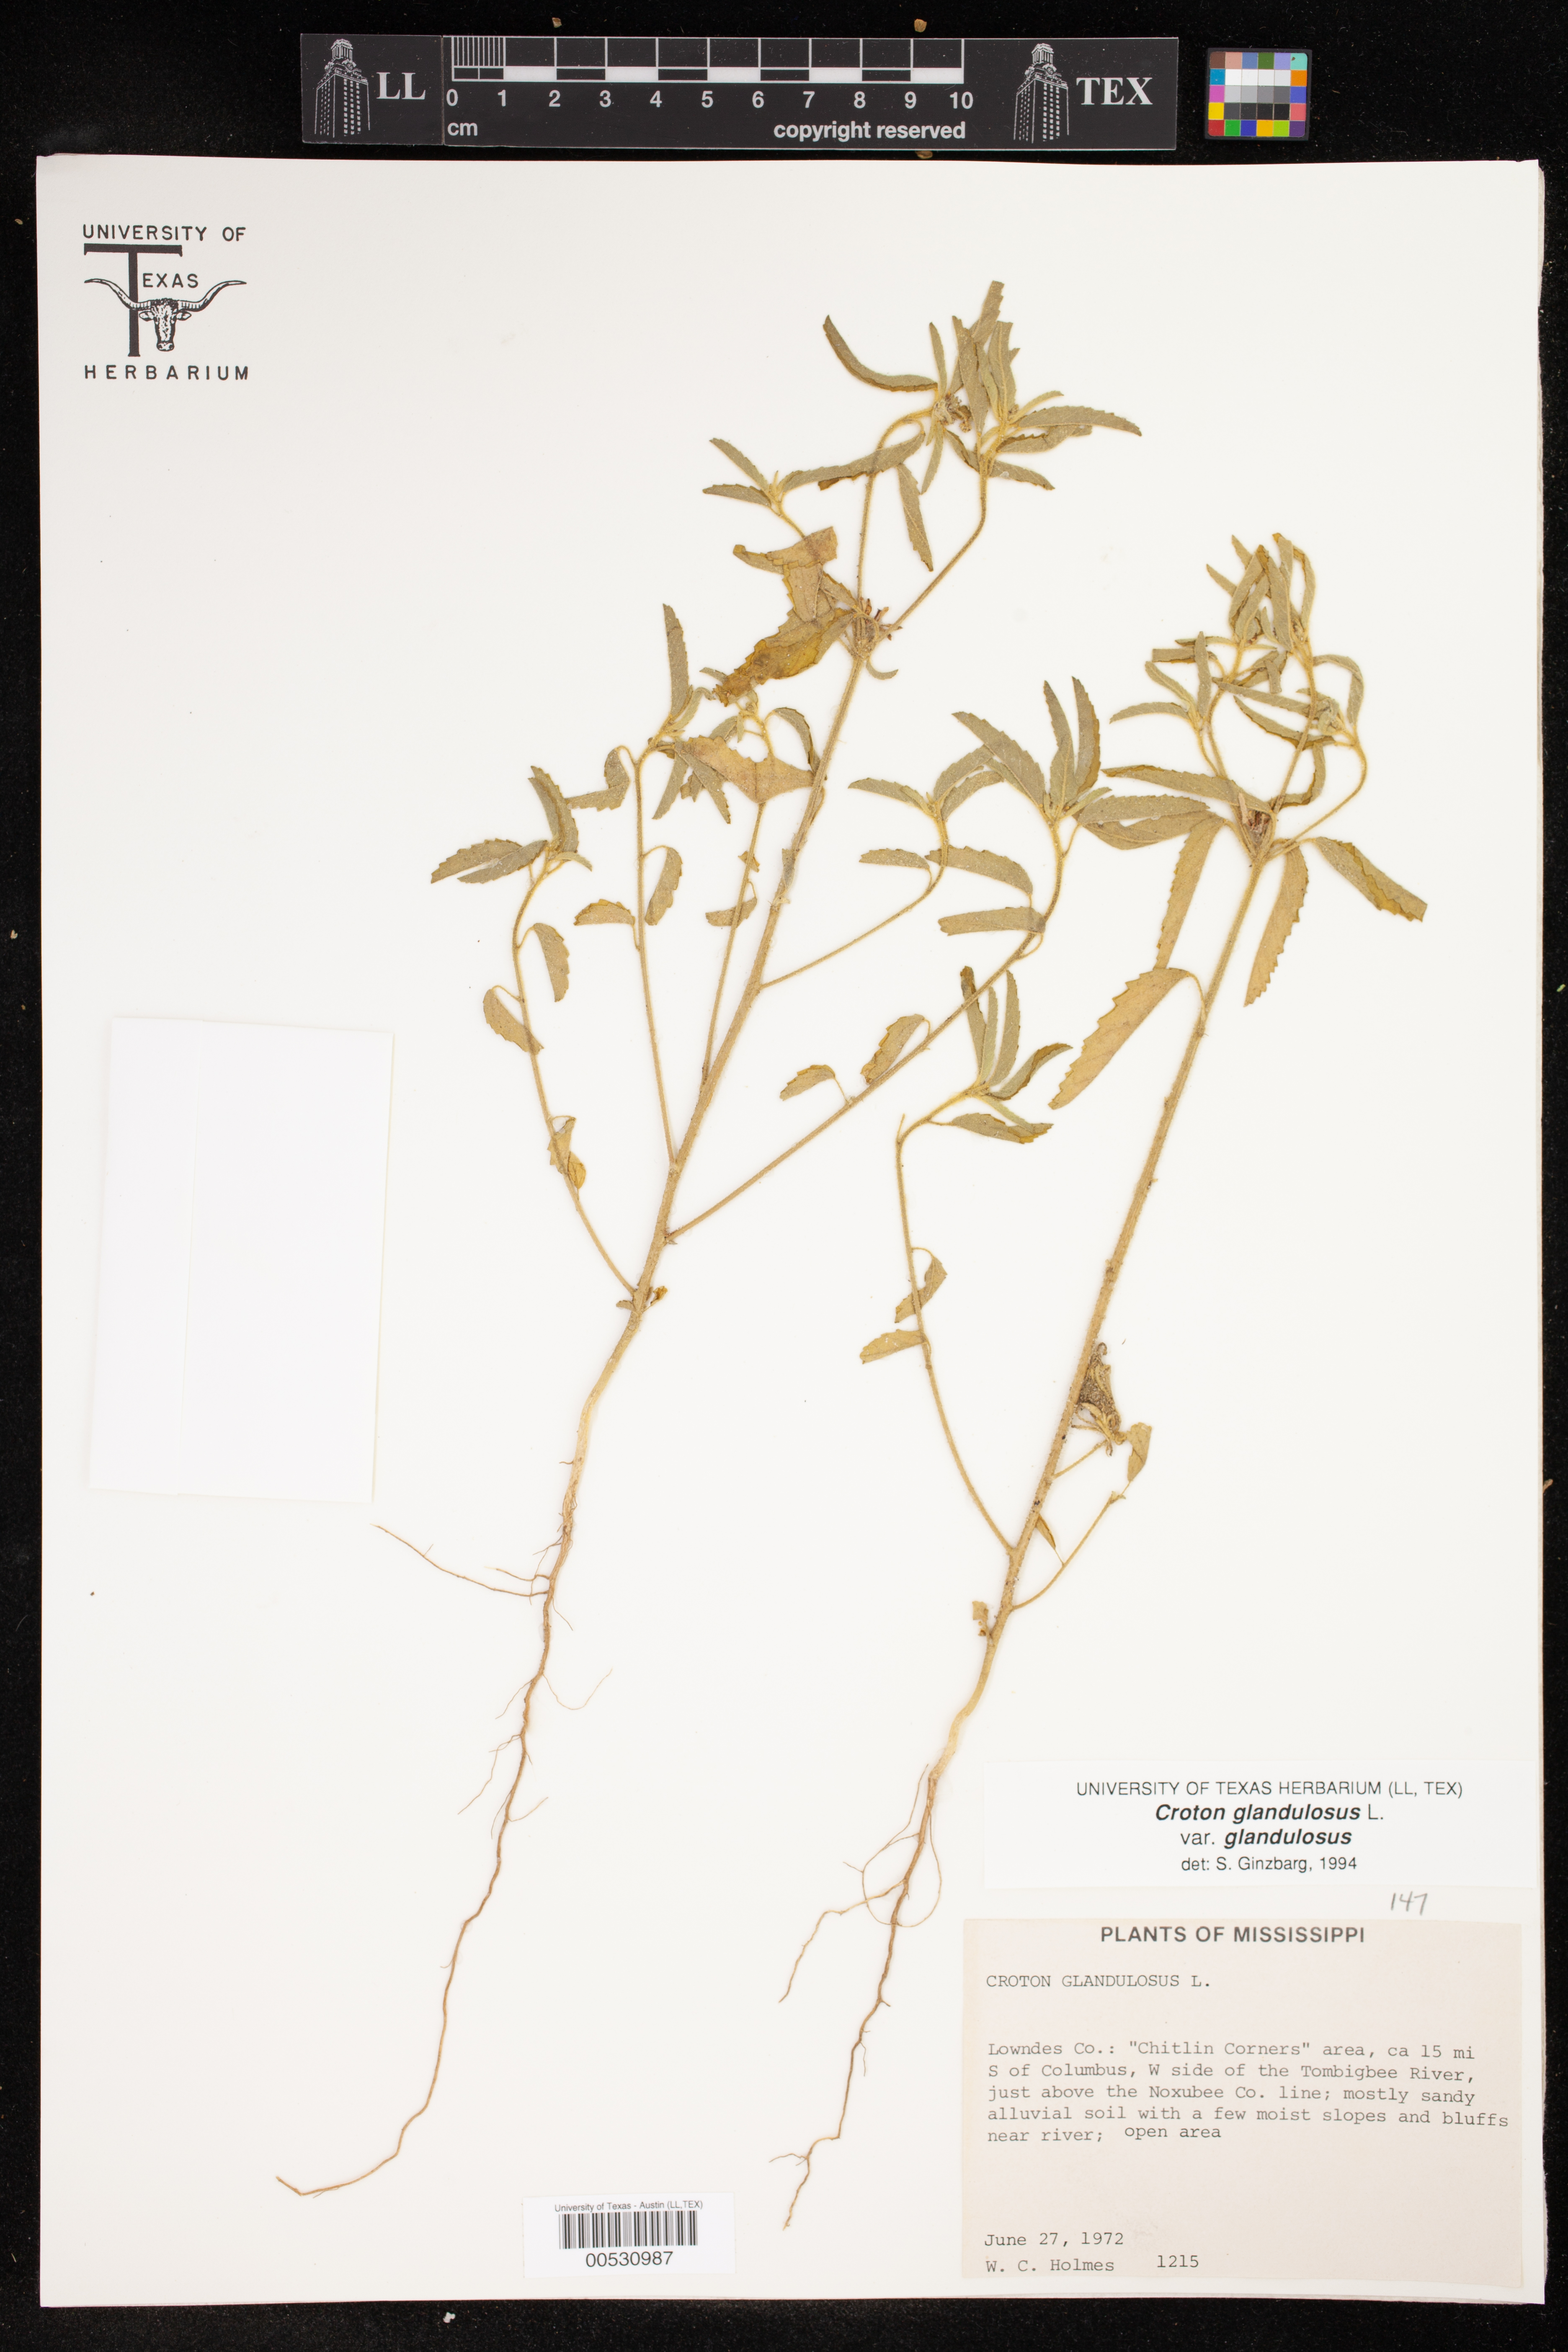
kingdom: Plantae
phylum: Tracheophyta
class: Magnoliopsida
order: Malpighiales
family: Euphorbiaceae
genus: Croton
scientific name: Croton glandulosus
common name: Tropic croton
